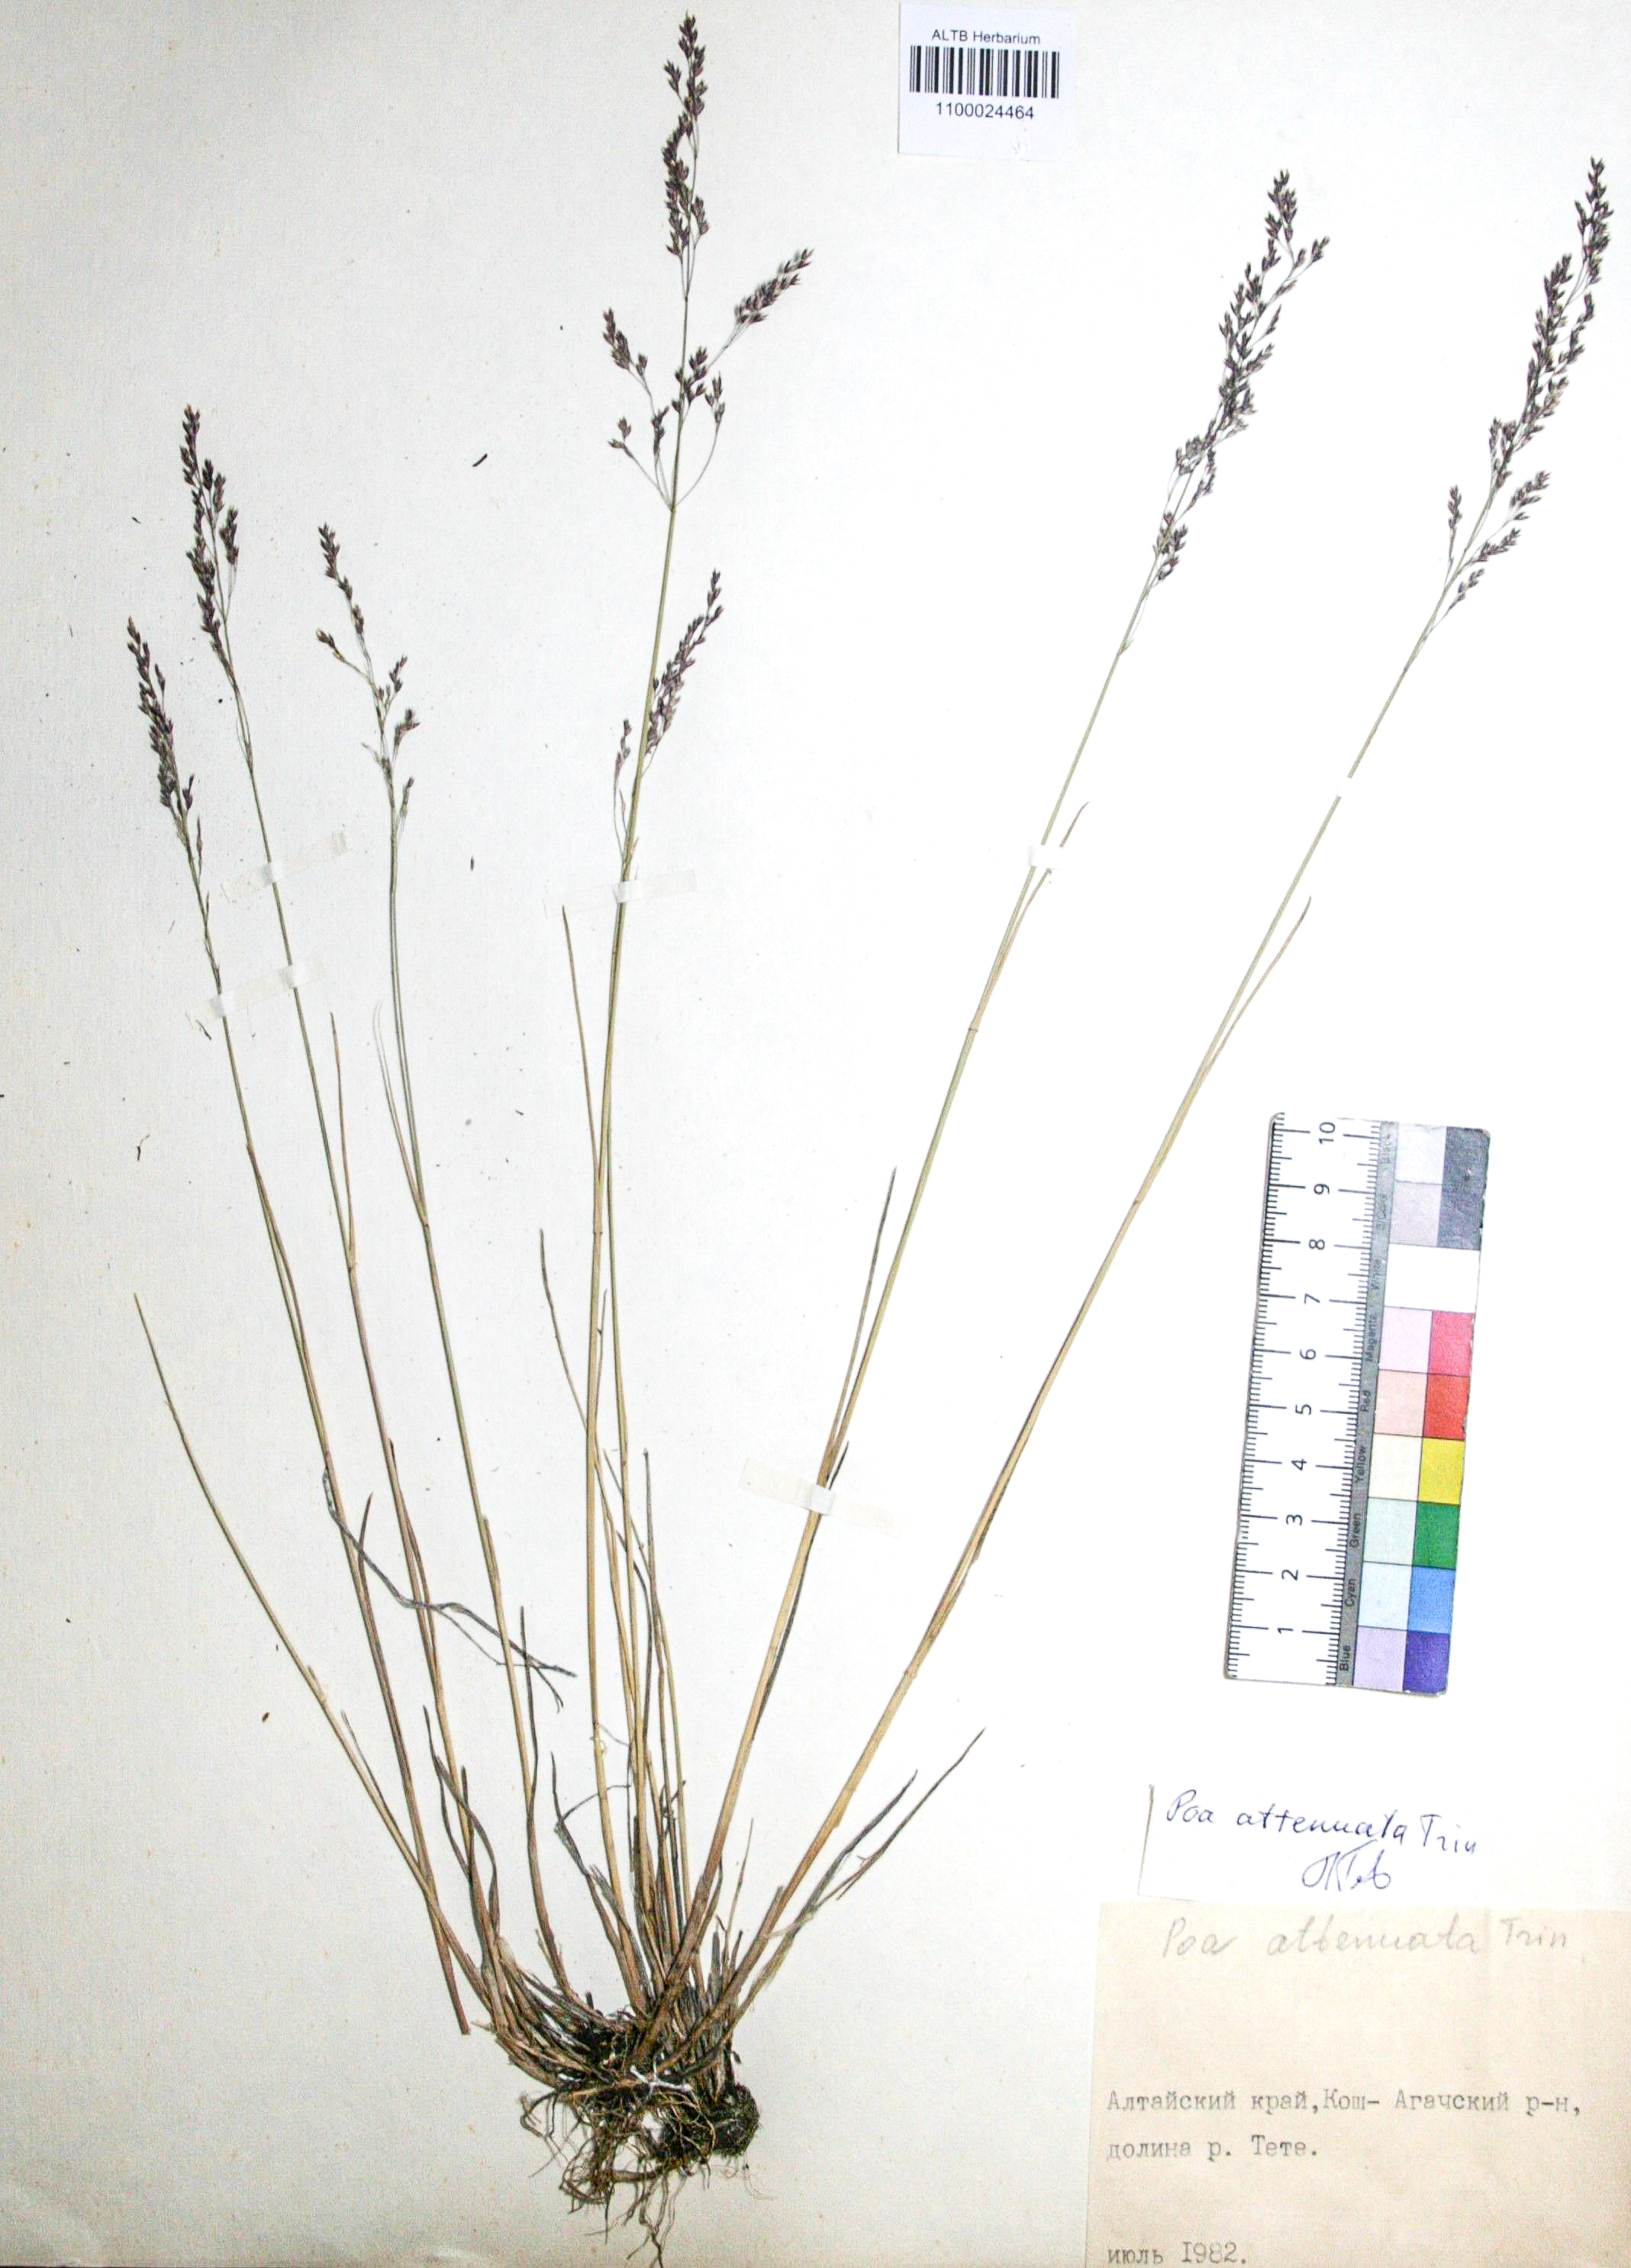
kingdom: Plantae
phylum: Tracheophyta
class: Liliopsida
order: Poales
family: Poaceae
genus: Poa
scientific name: Poa attenuata
